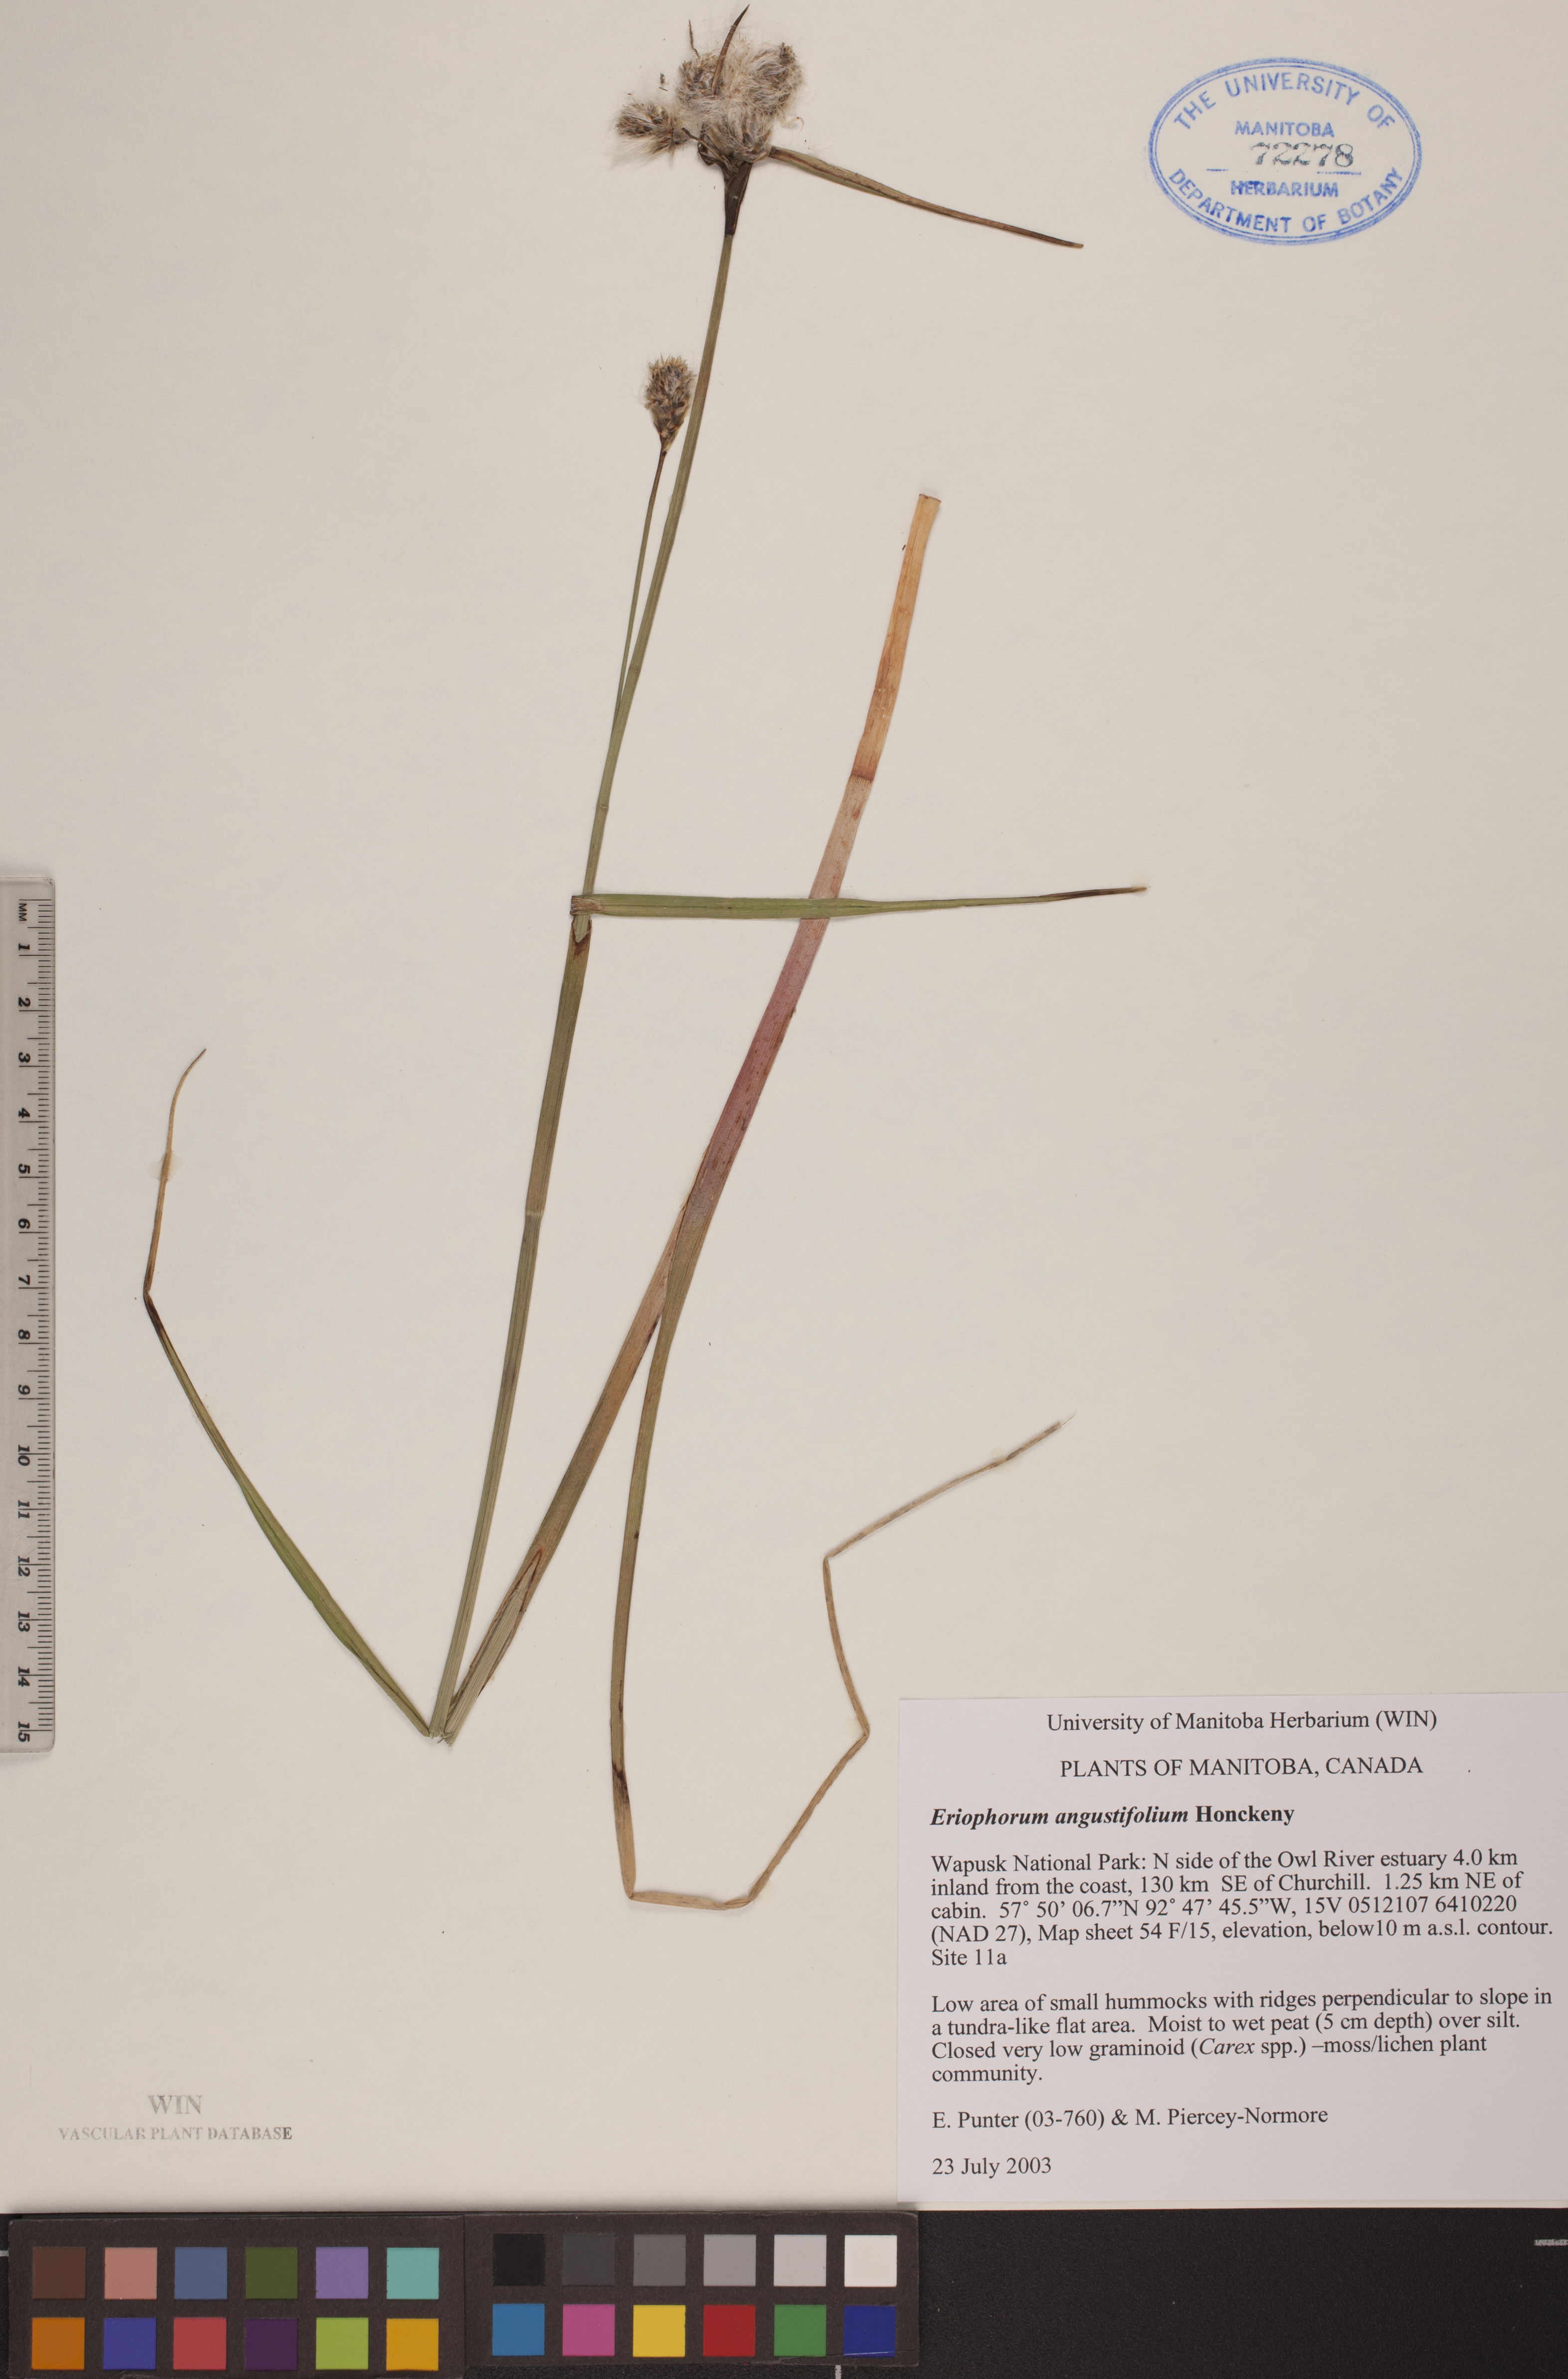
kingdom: Plantae
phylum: Tracheophyta
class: Liliopsida
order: Poales
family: Cyperaceae
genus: Eriophorum
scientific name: Eriophorum angustifolium
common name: Common cottongrass
